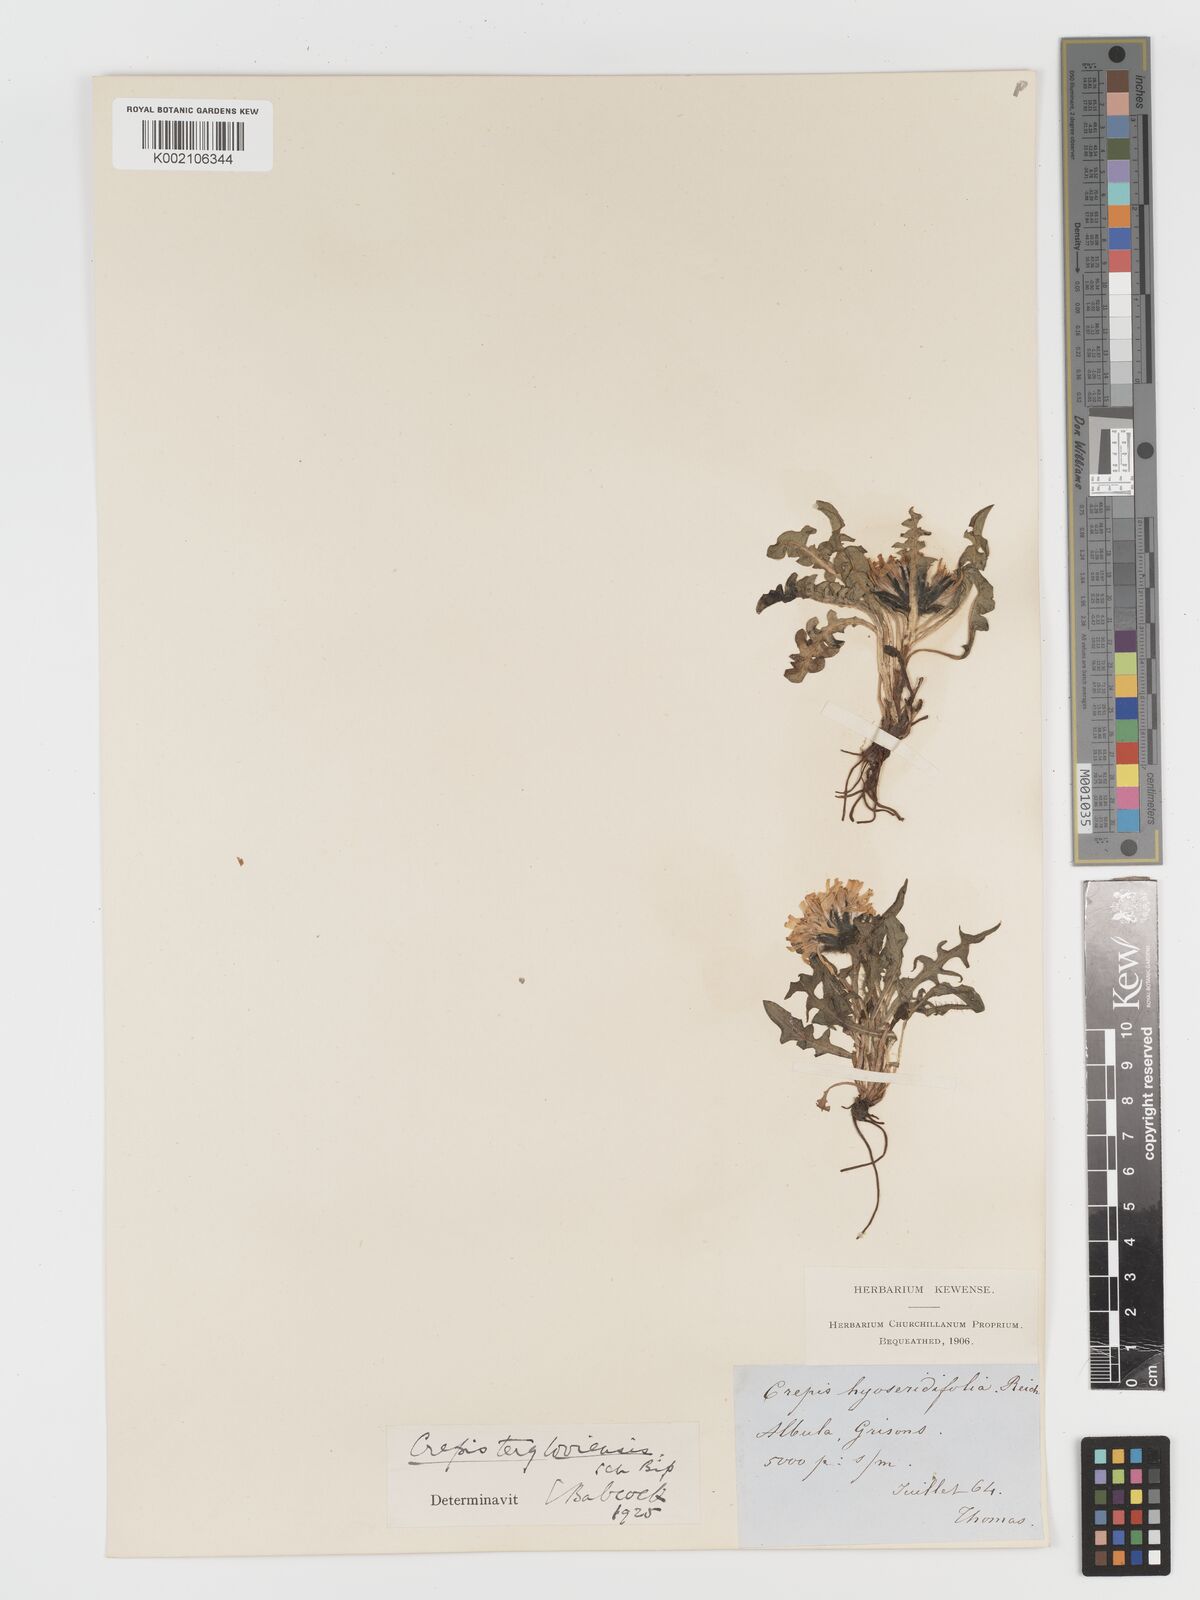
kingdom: Plantae
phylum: Tracheophyta
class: Magnoliopsida
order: Asterales
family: Asteraceae
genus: Crepis
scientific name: Crepis
